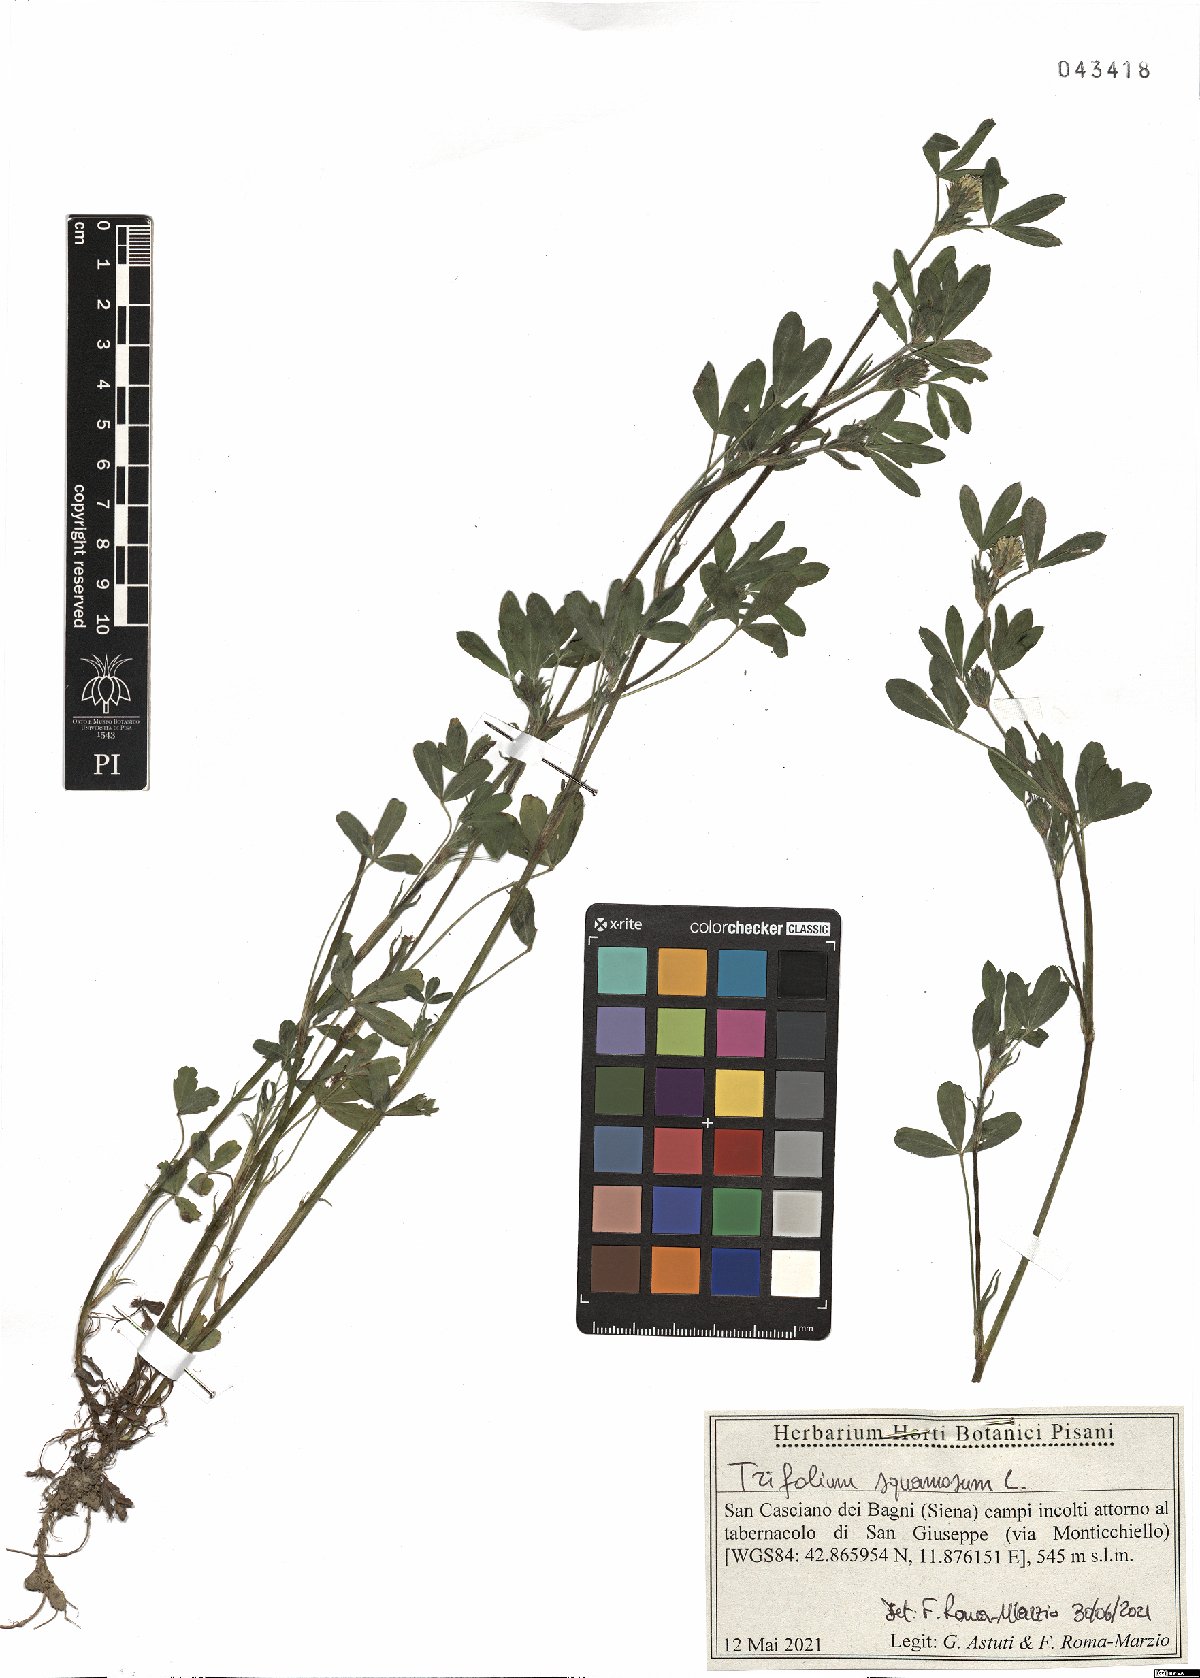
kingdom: Plantae
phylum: Tracheophyta
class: Magnoliopsida
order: Fabales
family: Fabaceae
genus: Trifolium
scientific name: Trifolium squamosum
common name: Sea clover
